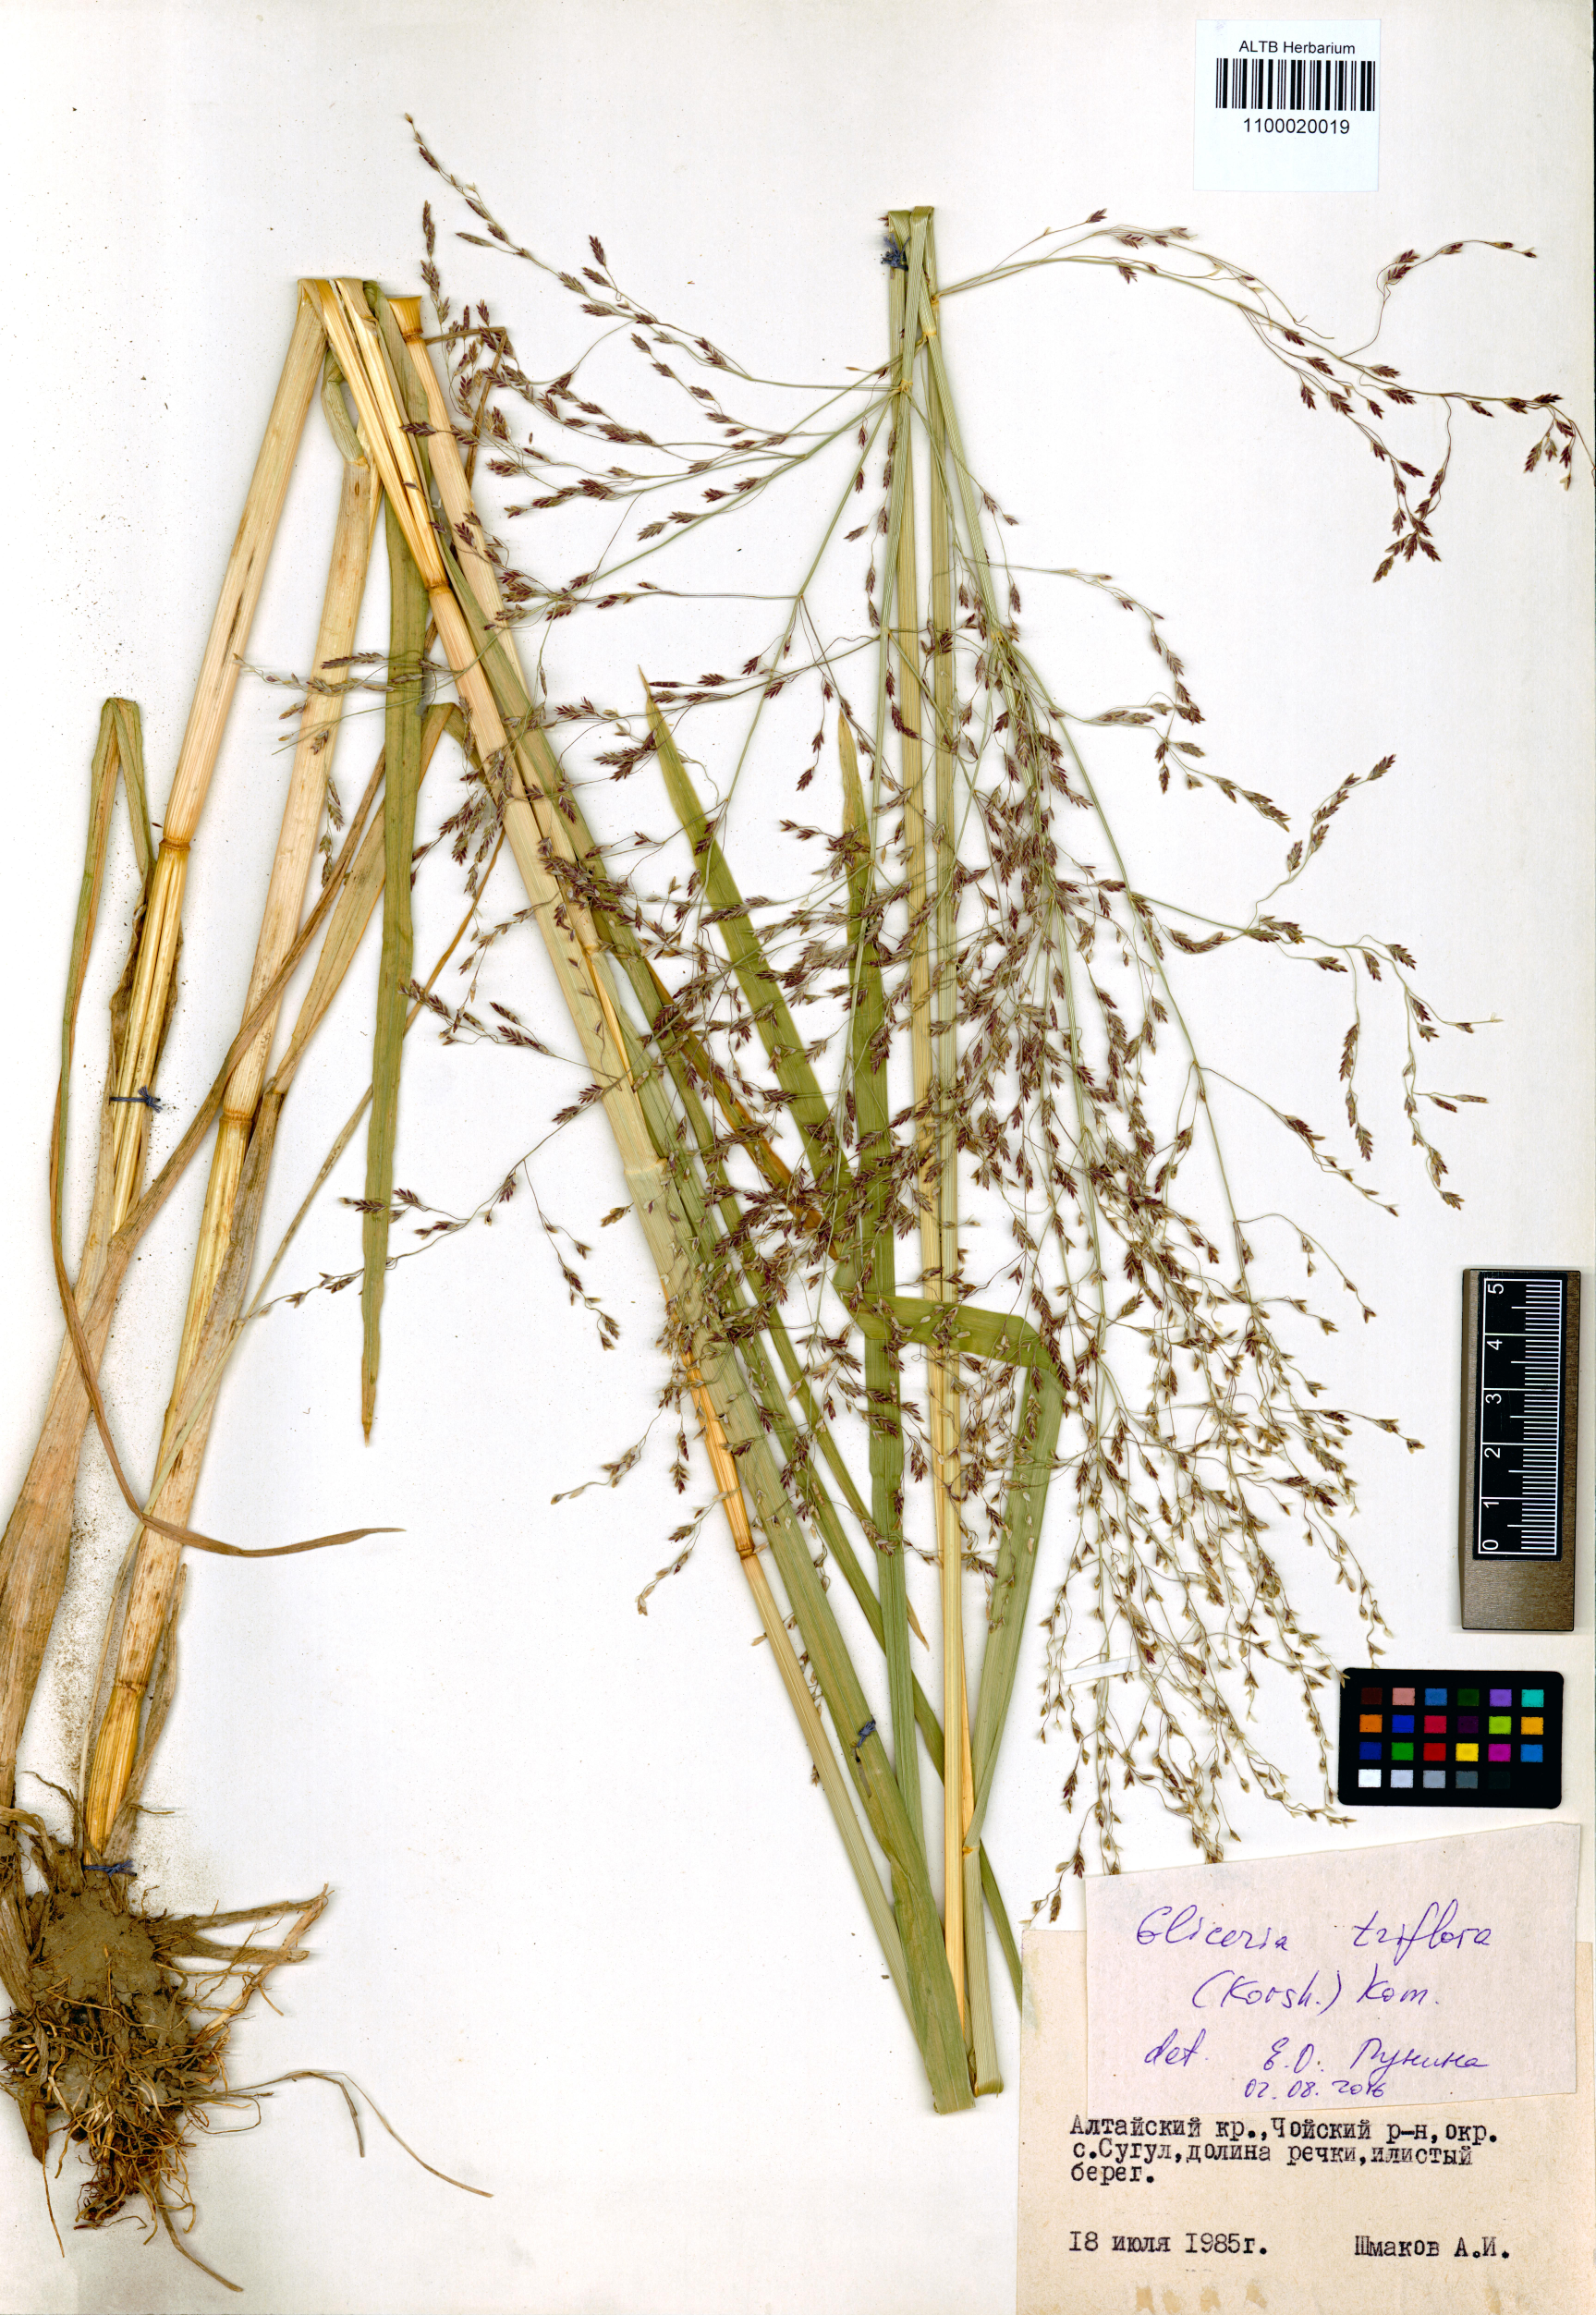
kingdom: Plantae
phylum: Tracheophyta
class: Liliopsida
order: Poales
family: Poaceae
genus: Glyceria
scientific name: Glyceria lithuanica
